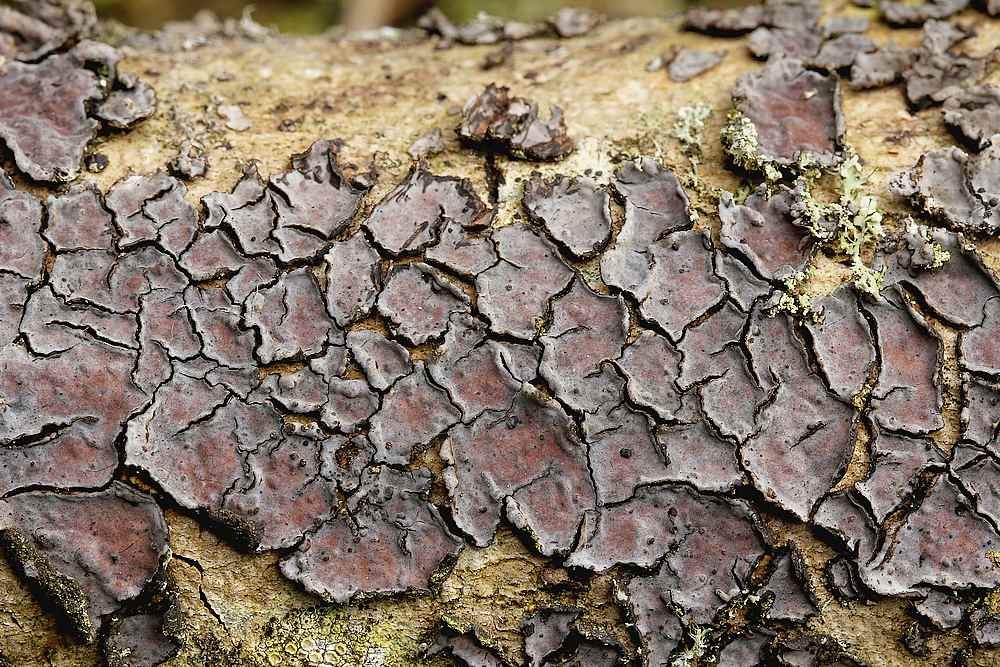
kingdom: Fungi
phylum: Basidiomycota
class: Agaricomycetes
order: Russulales
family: Peniophoraceae
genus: Peniophora
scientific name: Peniophora limitata
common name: mørkrandet voksskind
